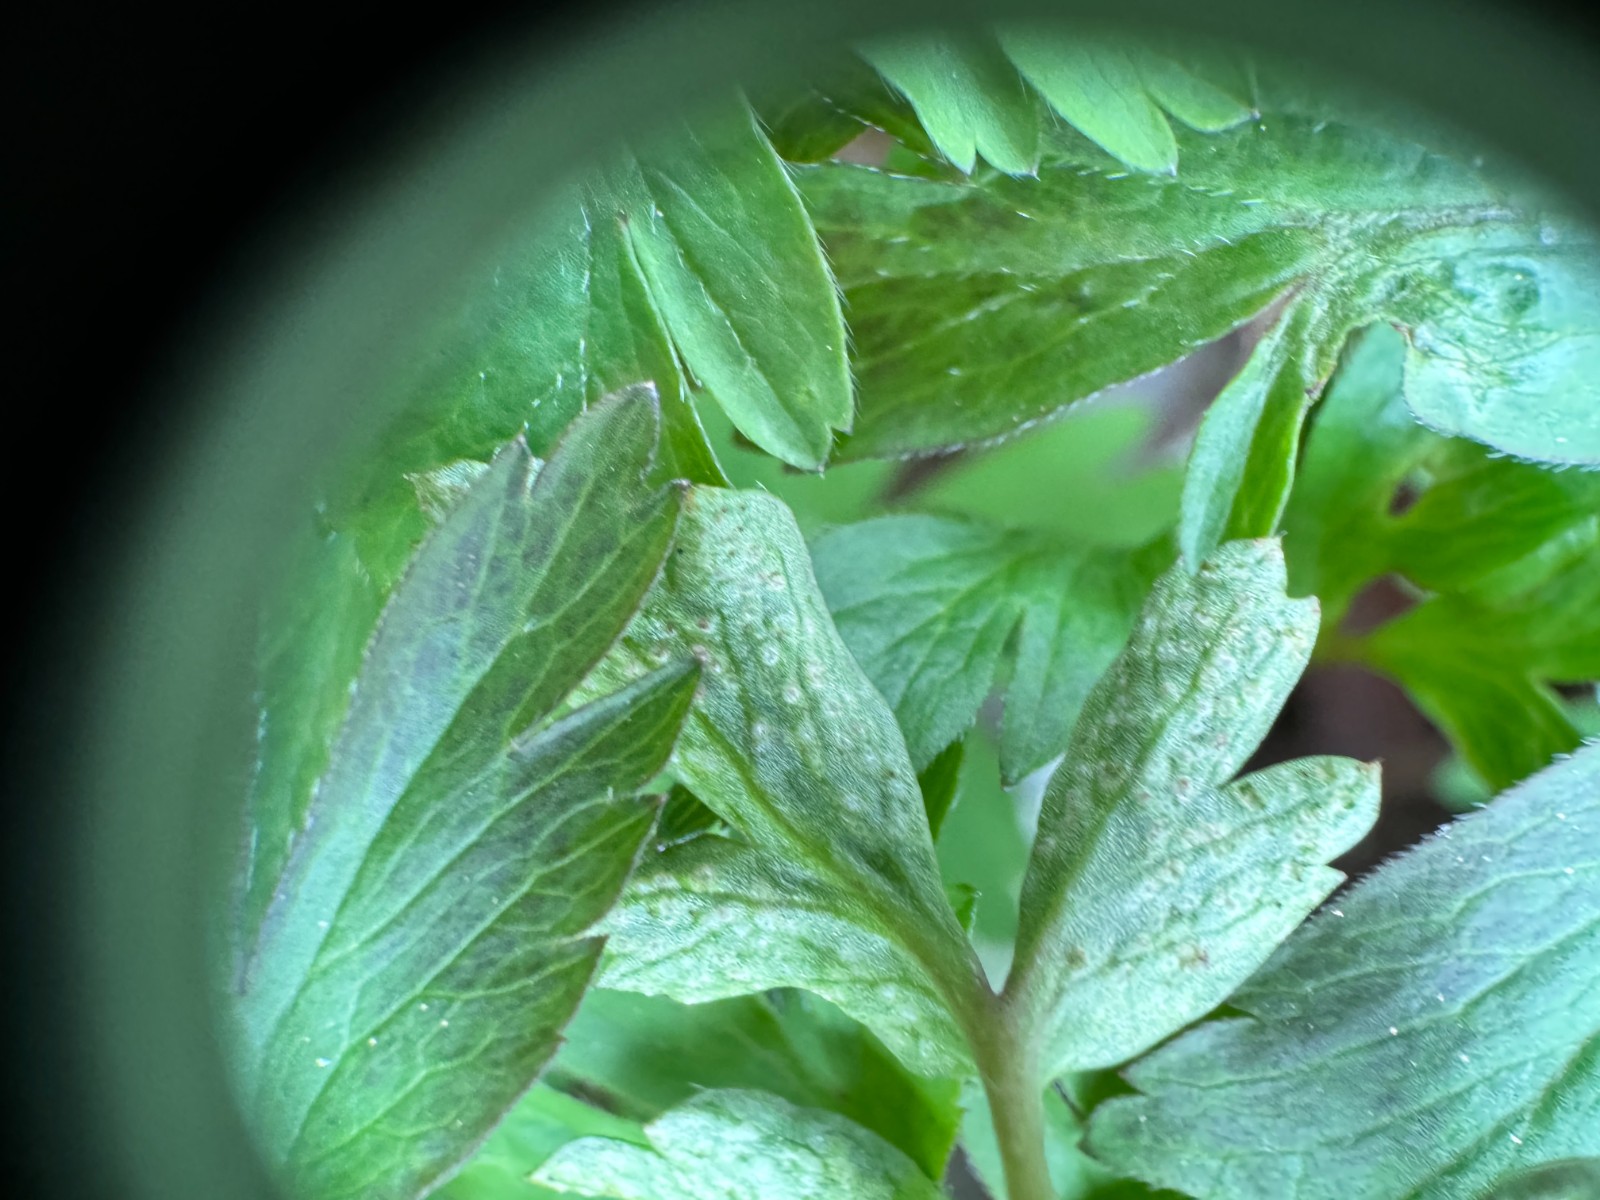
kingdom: Fungi
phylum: Basidiomycota
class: Pucciniomycetes
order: Pucciniales
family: Tranzscheliaceae
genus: Tranzschelia
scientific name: Tranzschelia anemones
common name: anemone-knæksporerust
